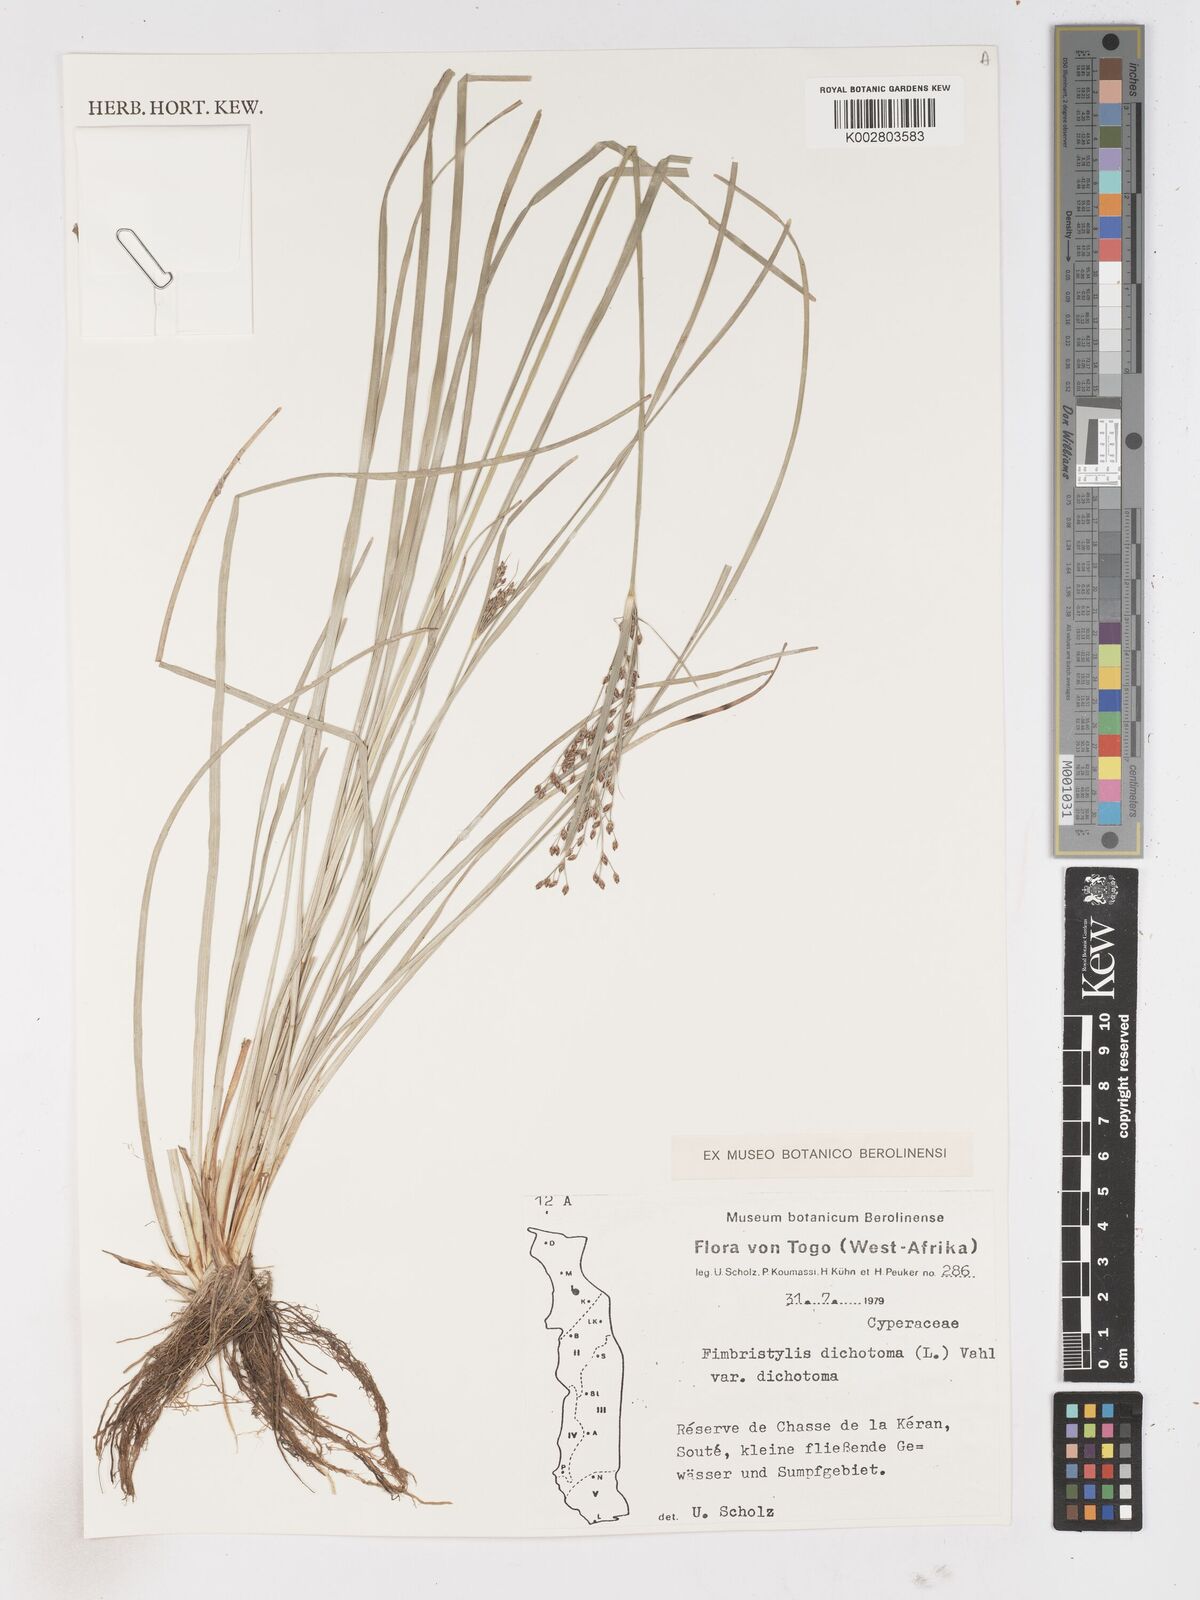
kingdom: Plantae
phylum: Tracheophyta
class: Liliopsida
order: Poales
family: Cyperaceae
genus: Fimbristylis
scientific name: Fimbristylis dichotoma
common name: Forked fimbry
